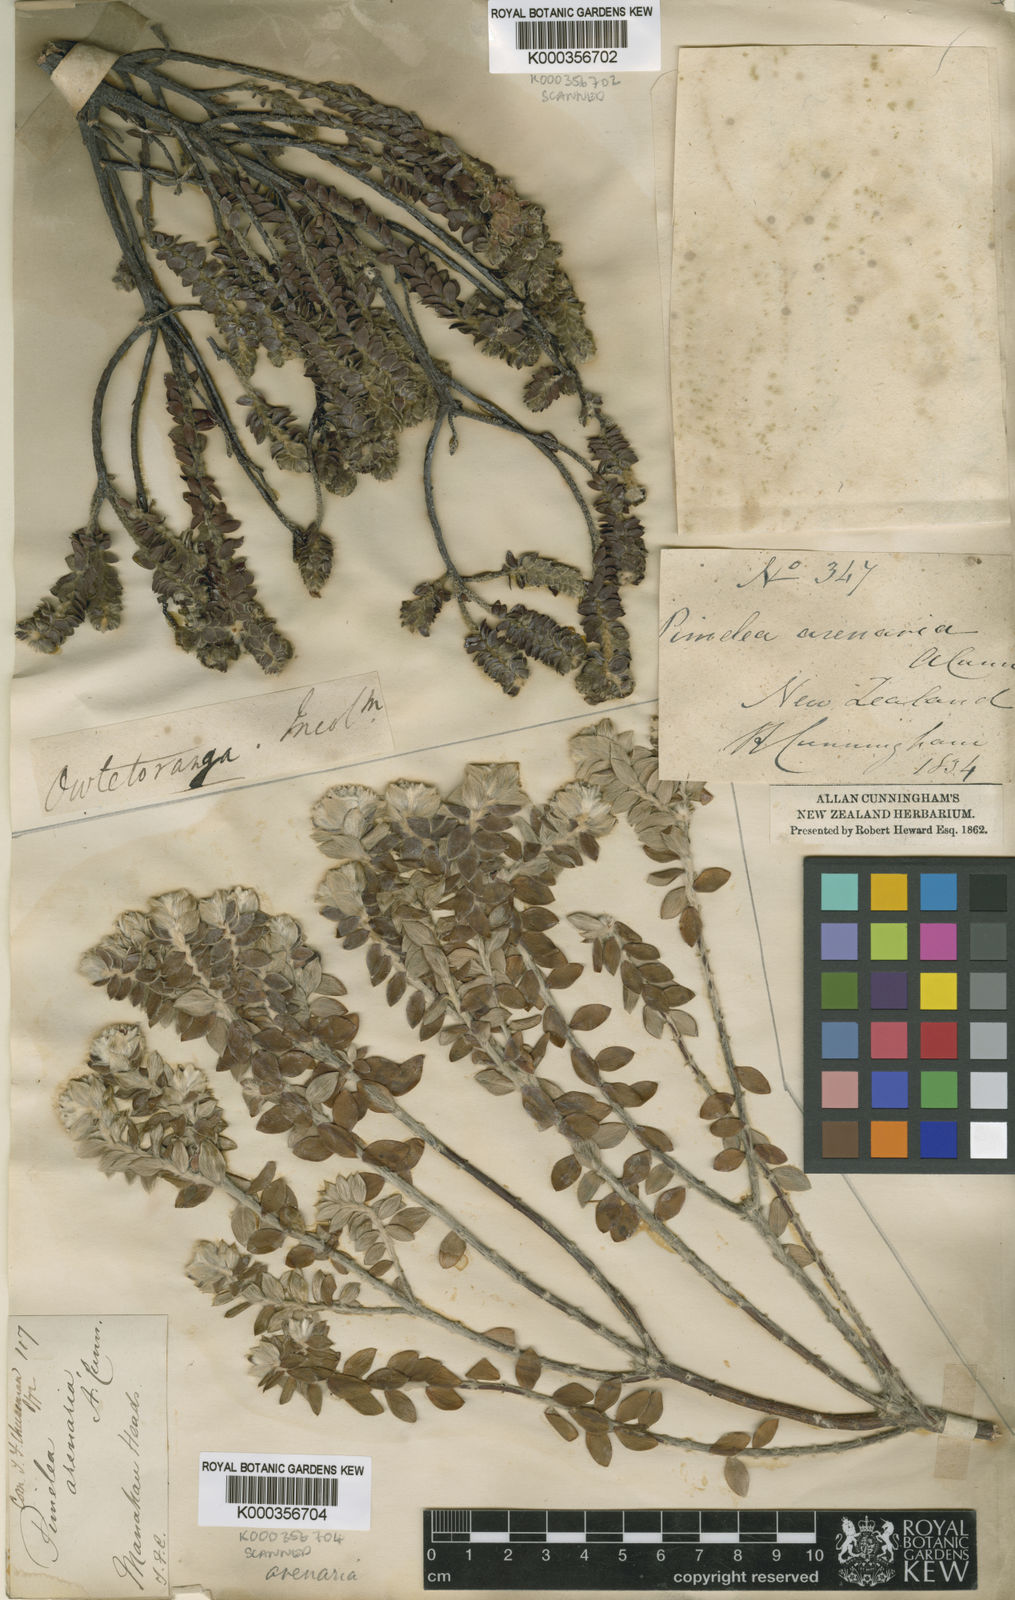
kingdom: Plantae
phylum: Tracheophyta
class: Magnoliopsida
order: Malvales
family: Thymelaeaceae
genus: Pimelea
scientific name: Pimelea villosa
